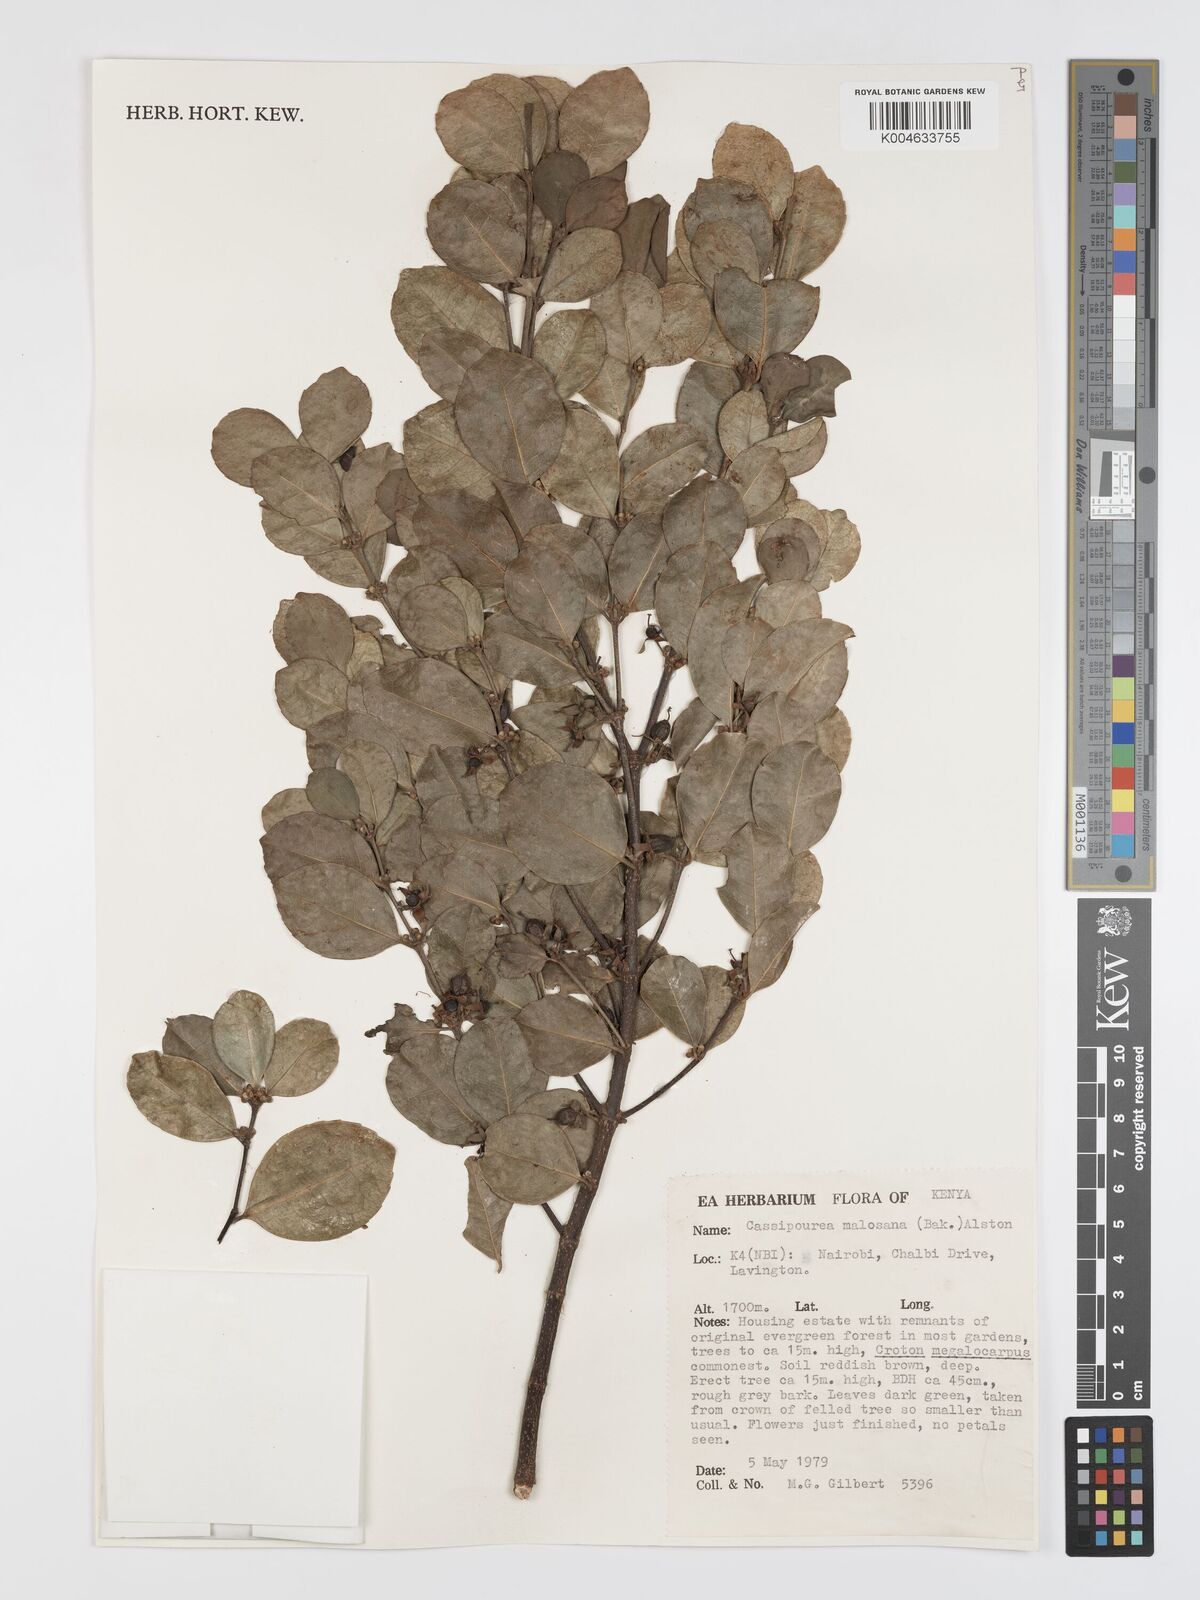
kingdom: Plantae
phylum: Tracheophyta
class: Magnoliopsida
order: Malpighiales
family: Rhizophoraceae
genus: Cassipourea
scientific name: Cassipourea
